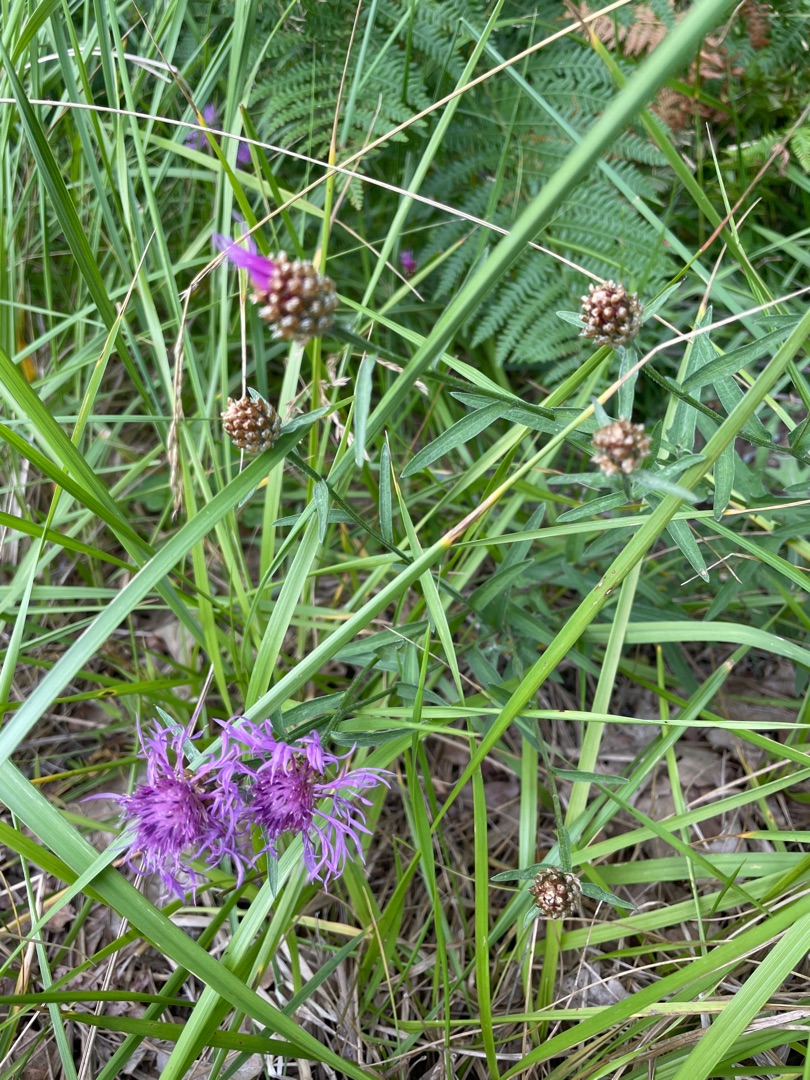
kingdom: Plantae
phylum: Tracheophyta
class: Magnoliopsida
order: Asterales
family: Asteraceae
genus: Centaurea
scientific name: Centaurea jacea
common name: Almindelig knopurt
